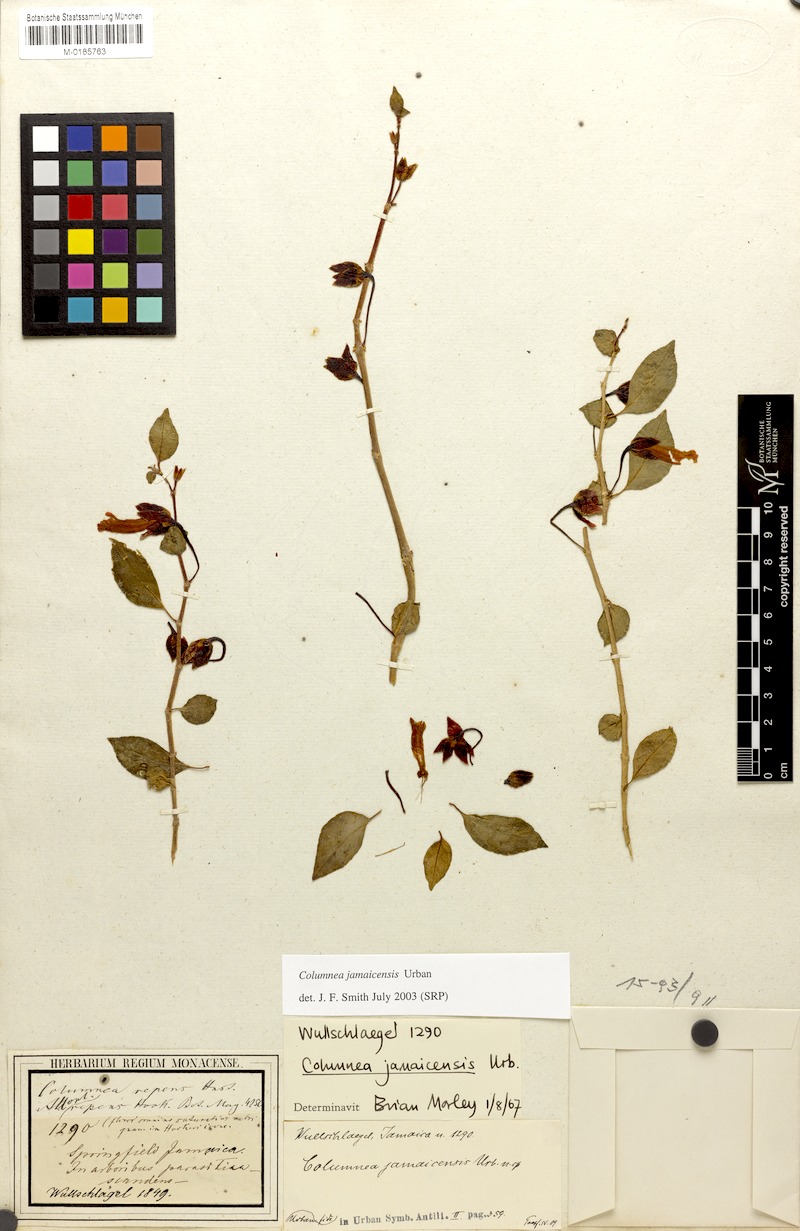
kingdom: Plantae
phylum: Tracheophyta
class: Magnoliopsida
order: Lamiales
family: Gesneriaceae
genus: Columnea
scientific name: Columnea repens
